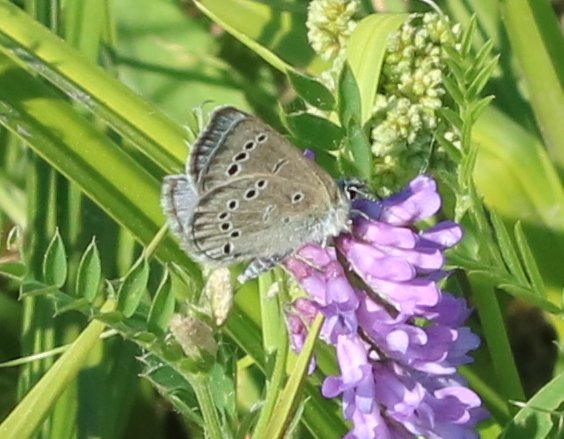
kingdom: Animalia
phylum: Arthropoda
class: Insecta
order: Lepidoptera
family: Lycaenidae
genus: Glaucopsyche
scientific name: Glaucopsyche lygdamus
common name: Silvery Blue
